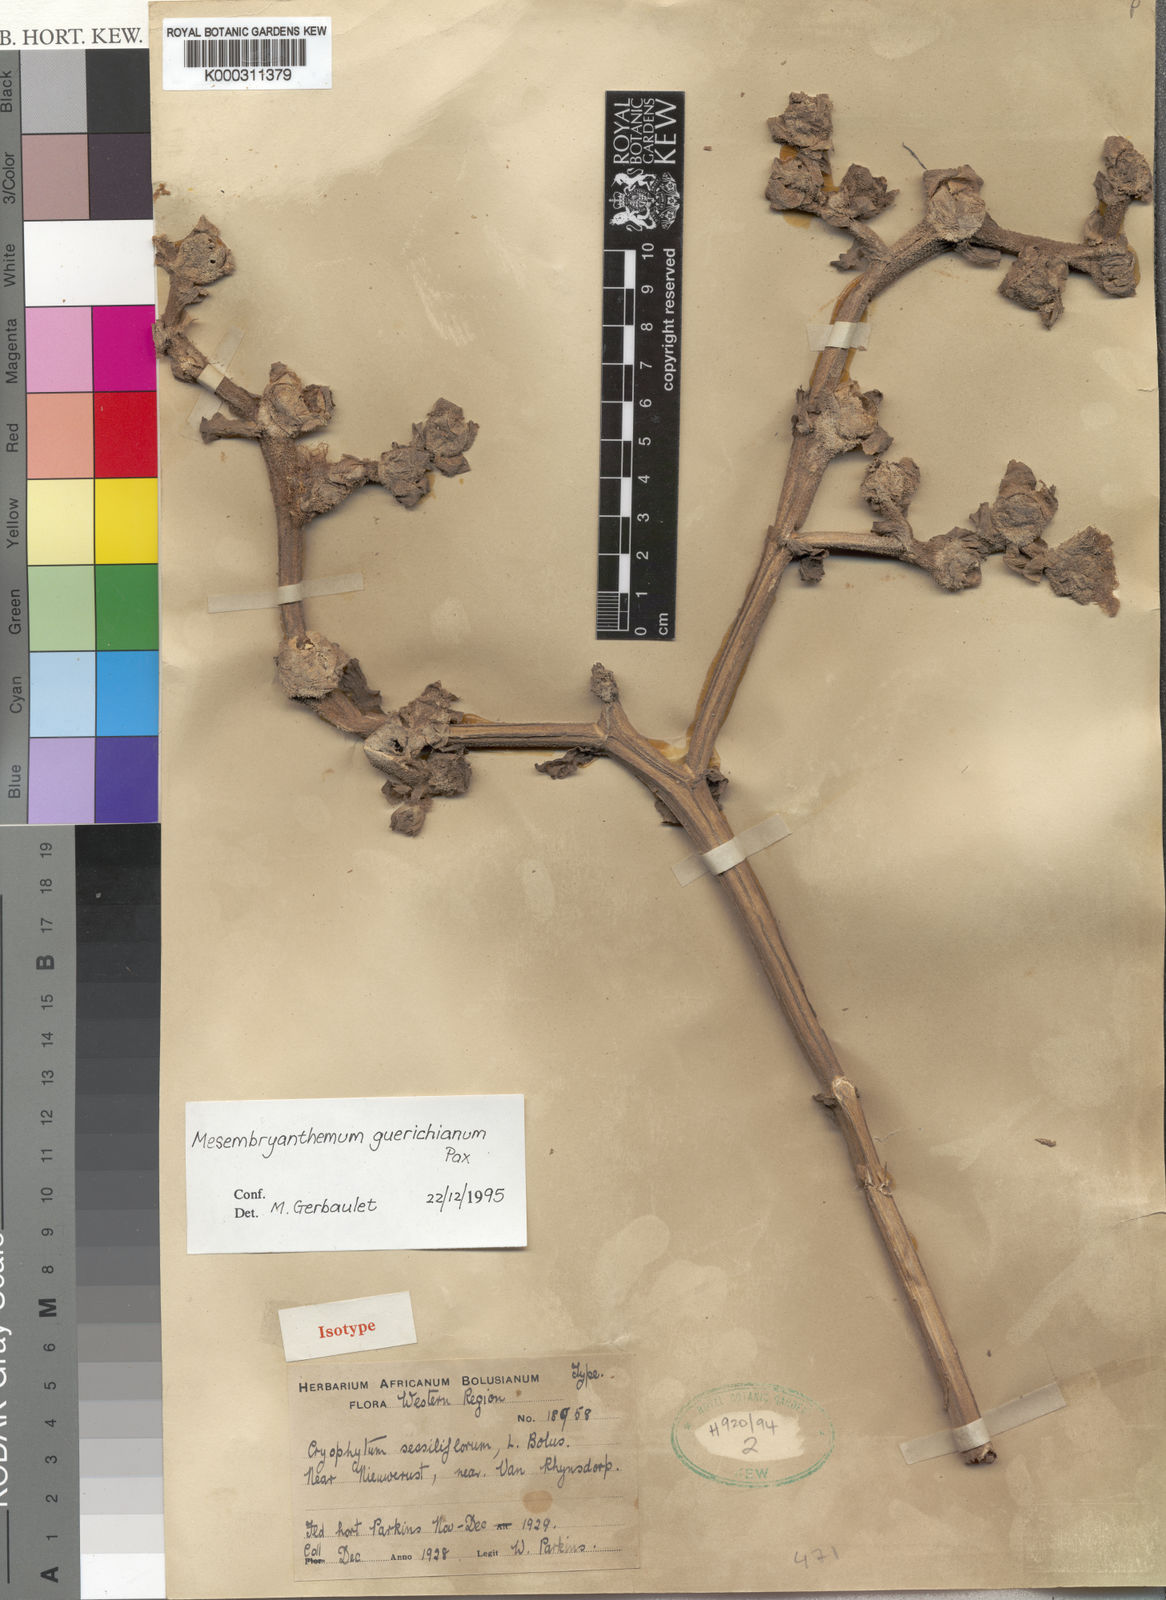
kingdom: Plantae
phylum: Tracheophyta
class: Magnoliopsida
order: Caryophyllales
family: Aizoaceae
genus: Mesembryanthemum
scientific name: Mesembryanthemum guerichianum
